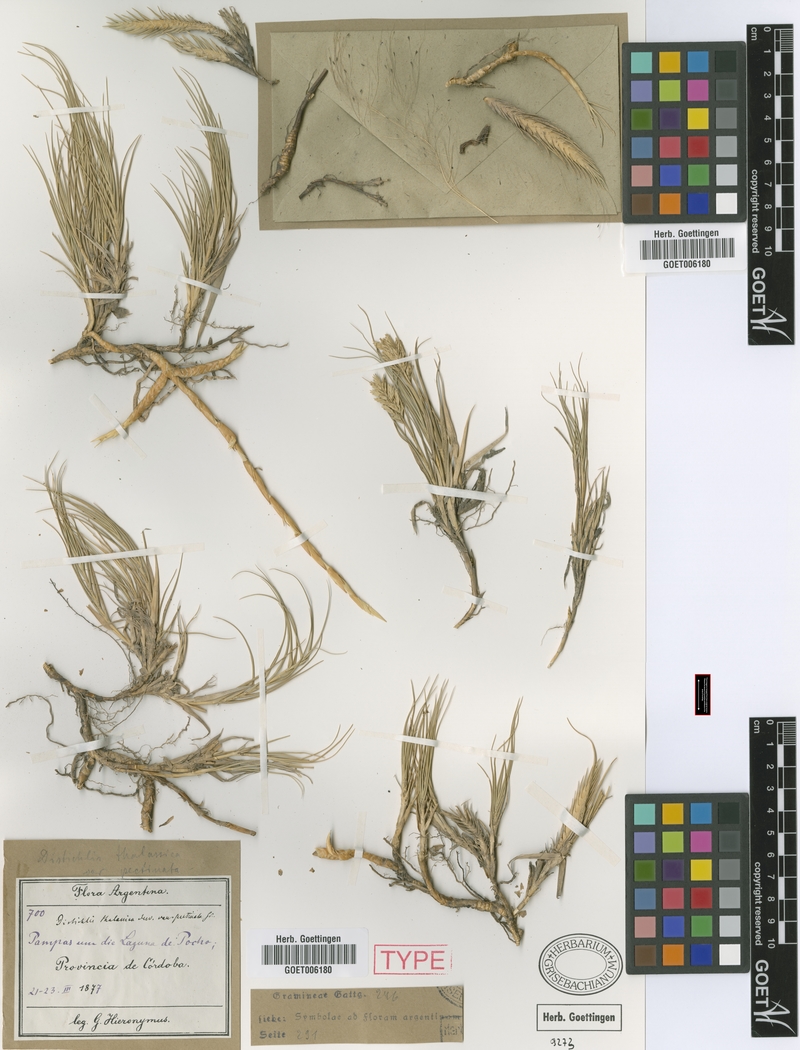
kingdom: Plantae
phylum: Tracheophyta
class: Liliopsida
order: Poales
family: Poaceae
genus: Distichlis
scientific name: Distichlis spicata
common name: Saltgrass
